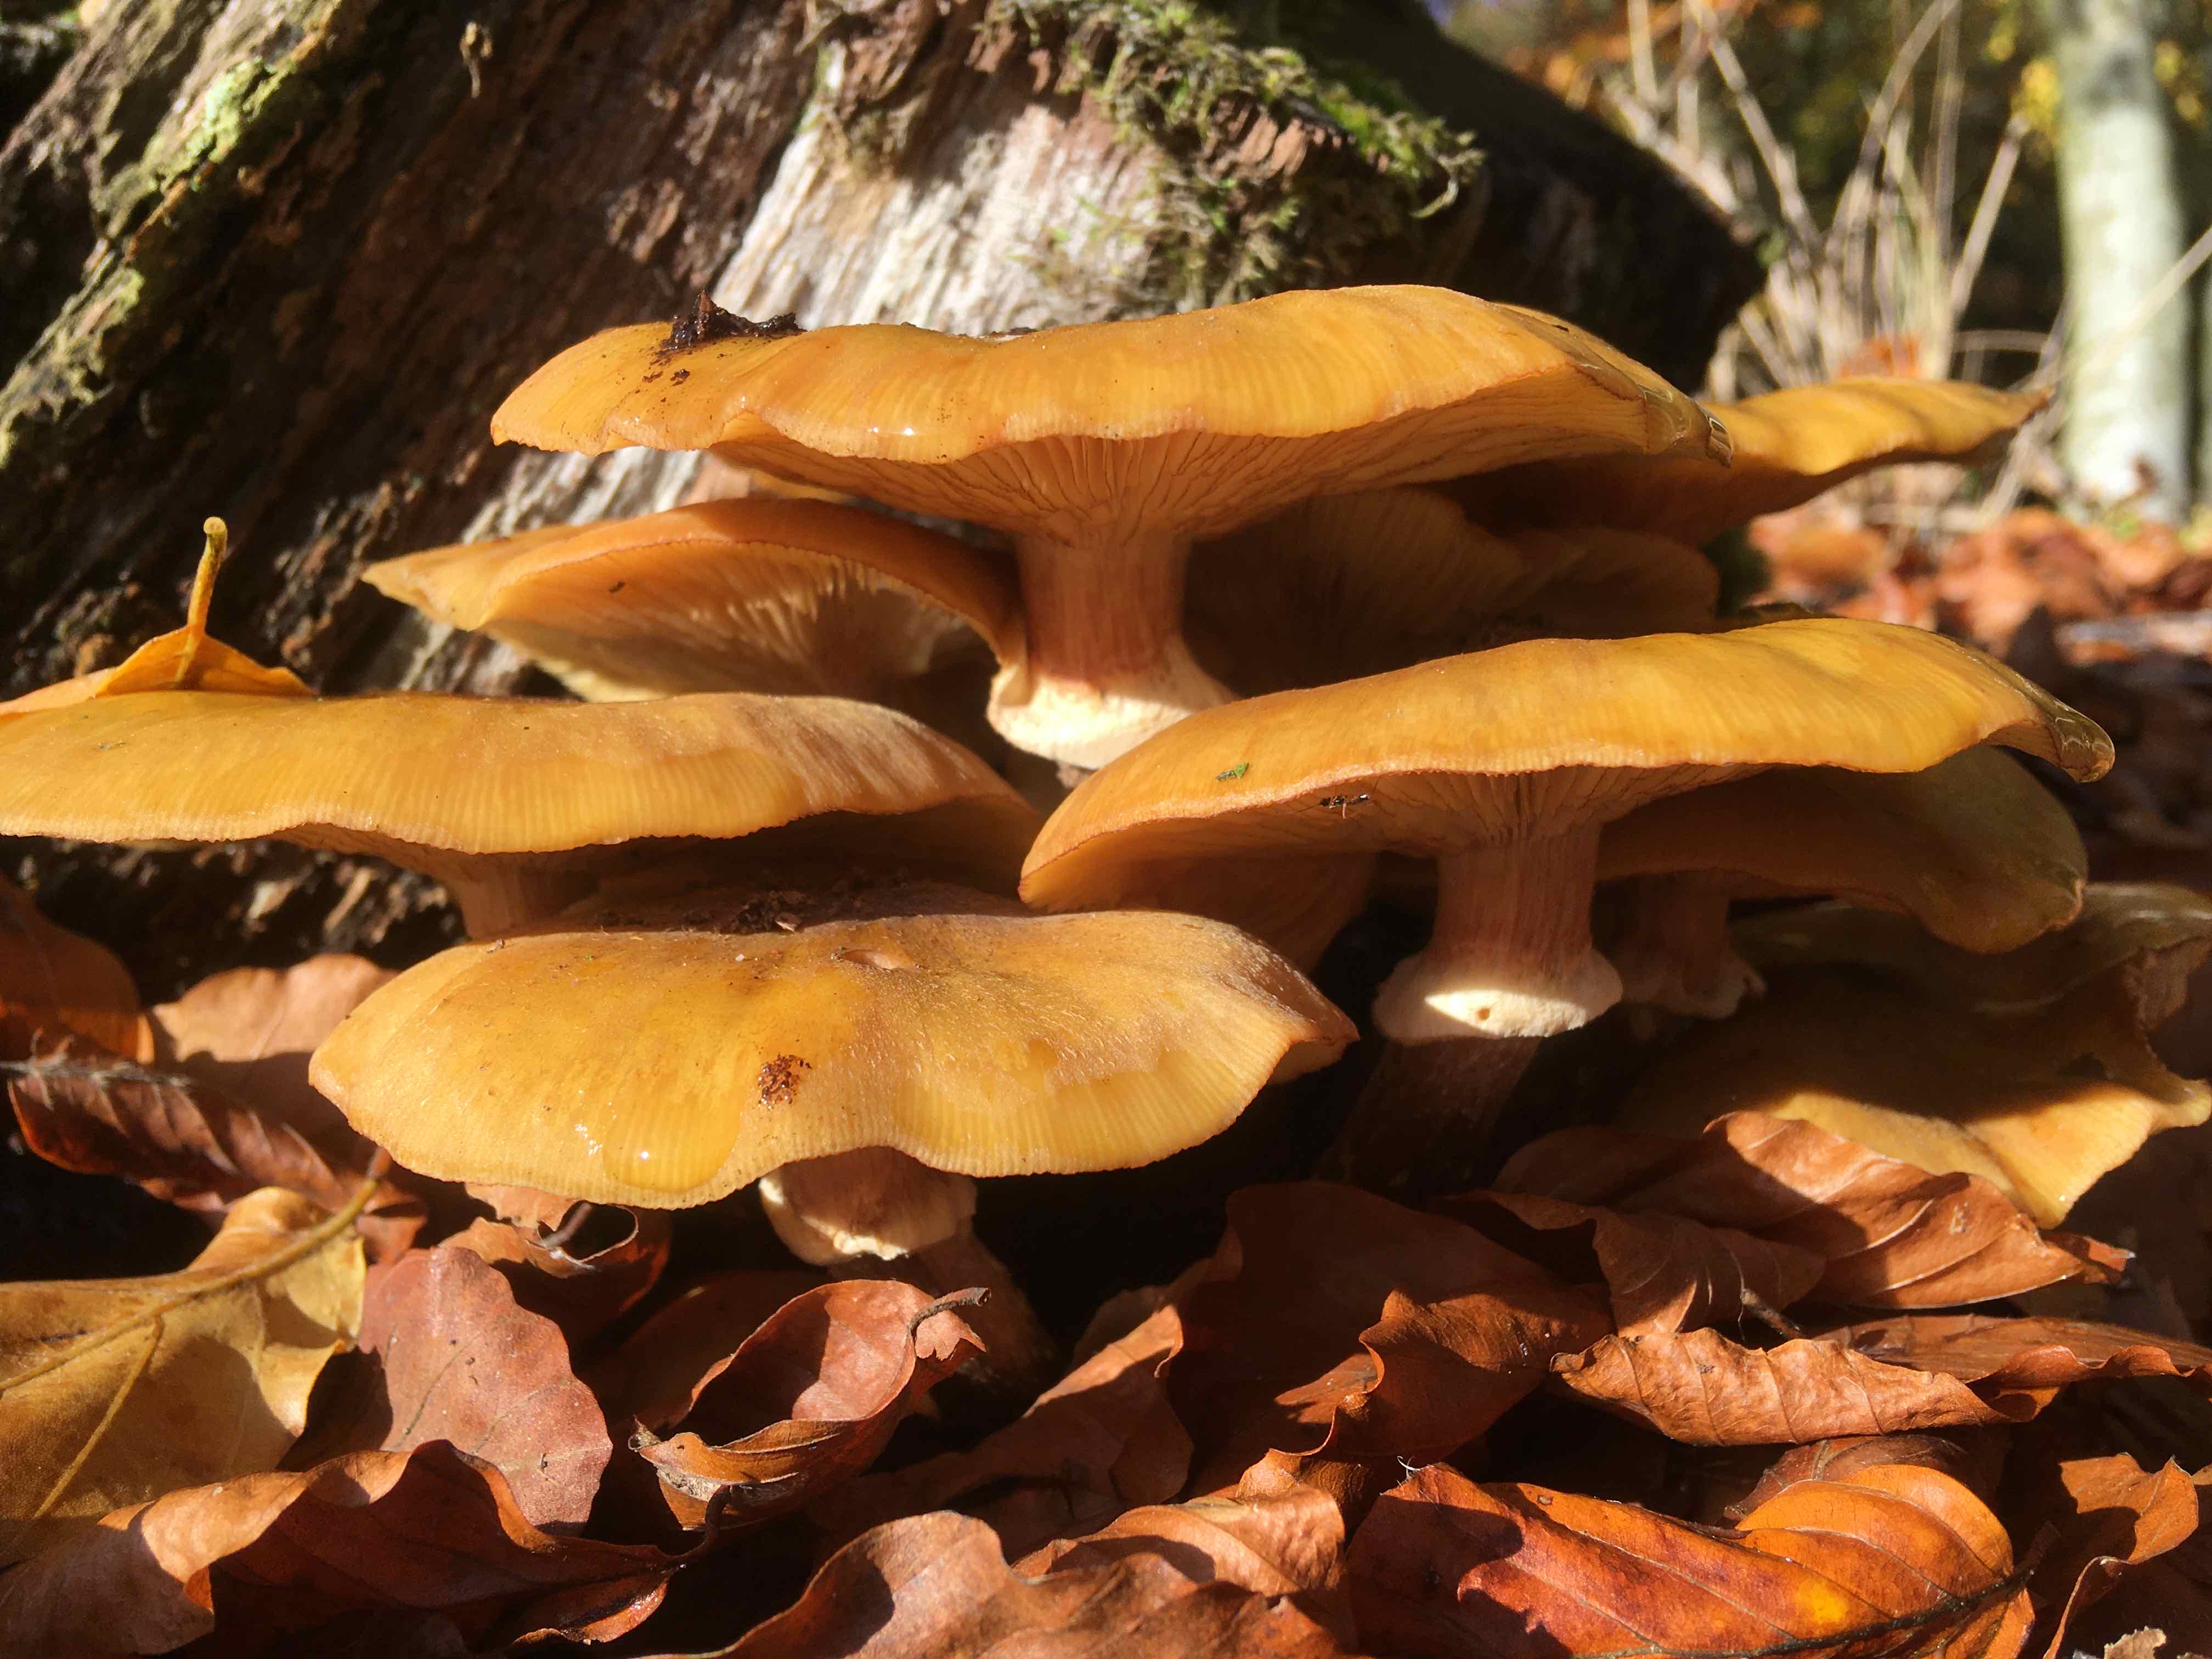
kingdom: Fungi
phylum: Basidiomycota
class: Agaricomycetes
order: Agaricales
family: Physalacriaceae
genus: Armillaria
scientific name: Armillaria mellea
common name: ægte honningsvamp
